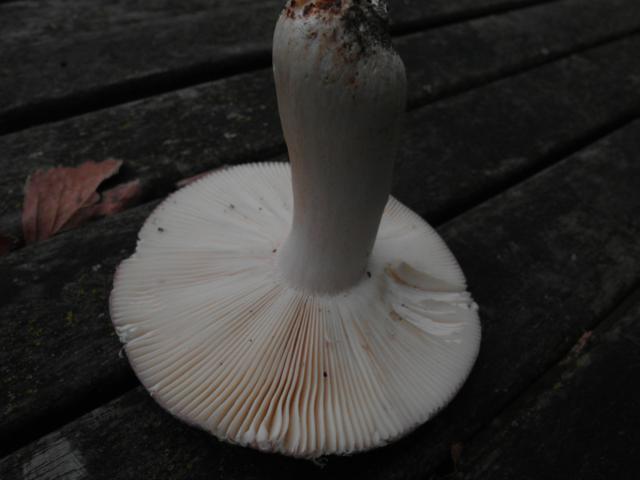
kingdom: Fungi
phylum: Basidiomycota
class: Agaricomycetes
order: Russulales
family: Russulaceae
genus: Russula
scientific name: Russula grisea
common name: grålig skørhat
